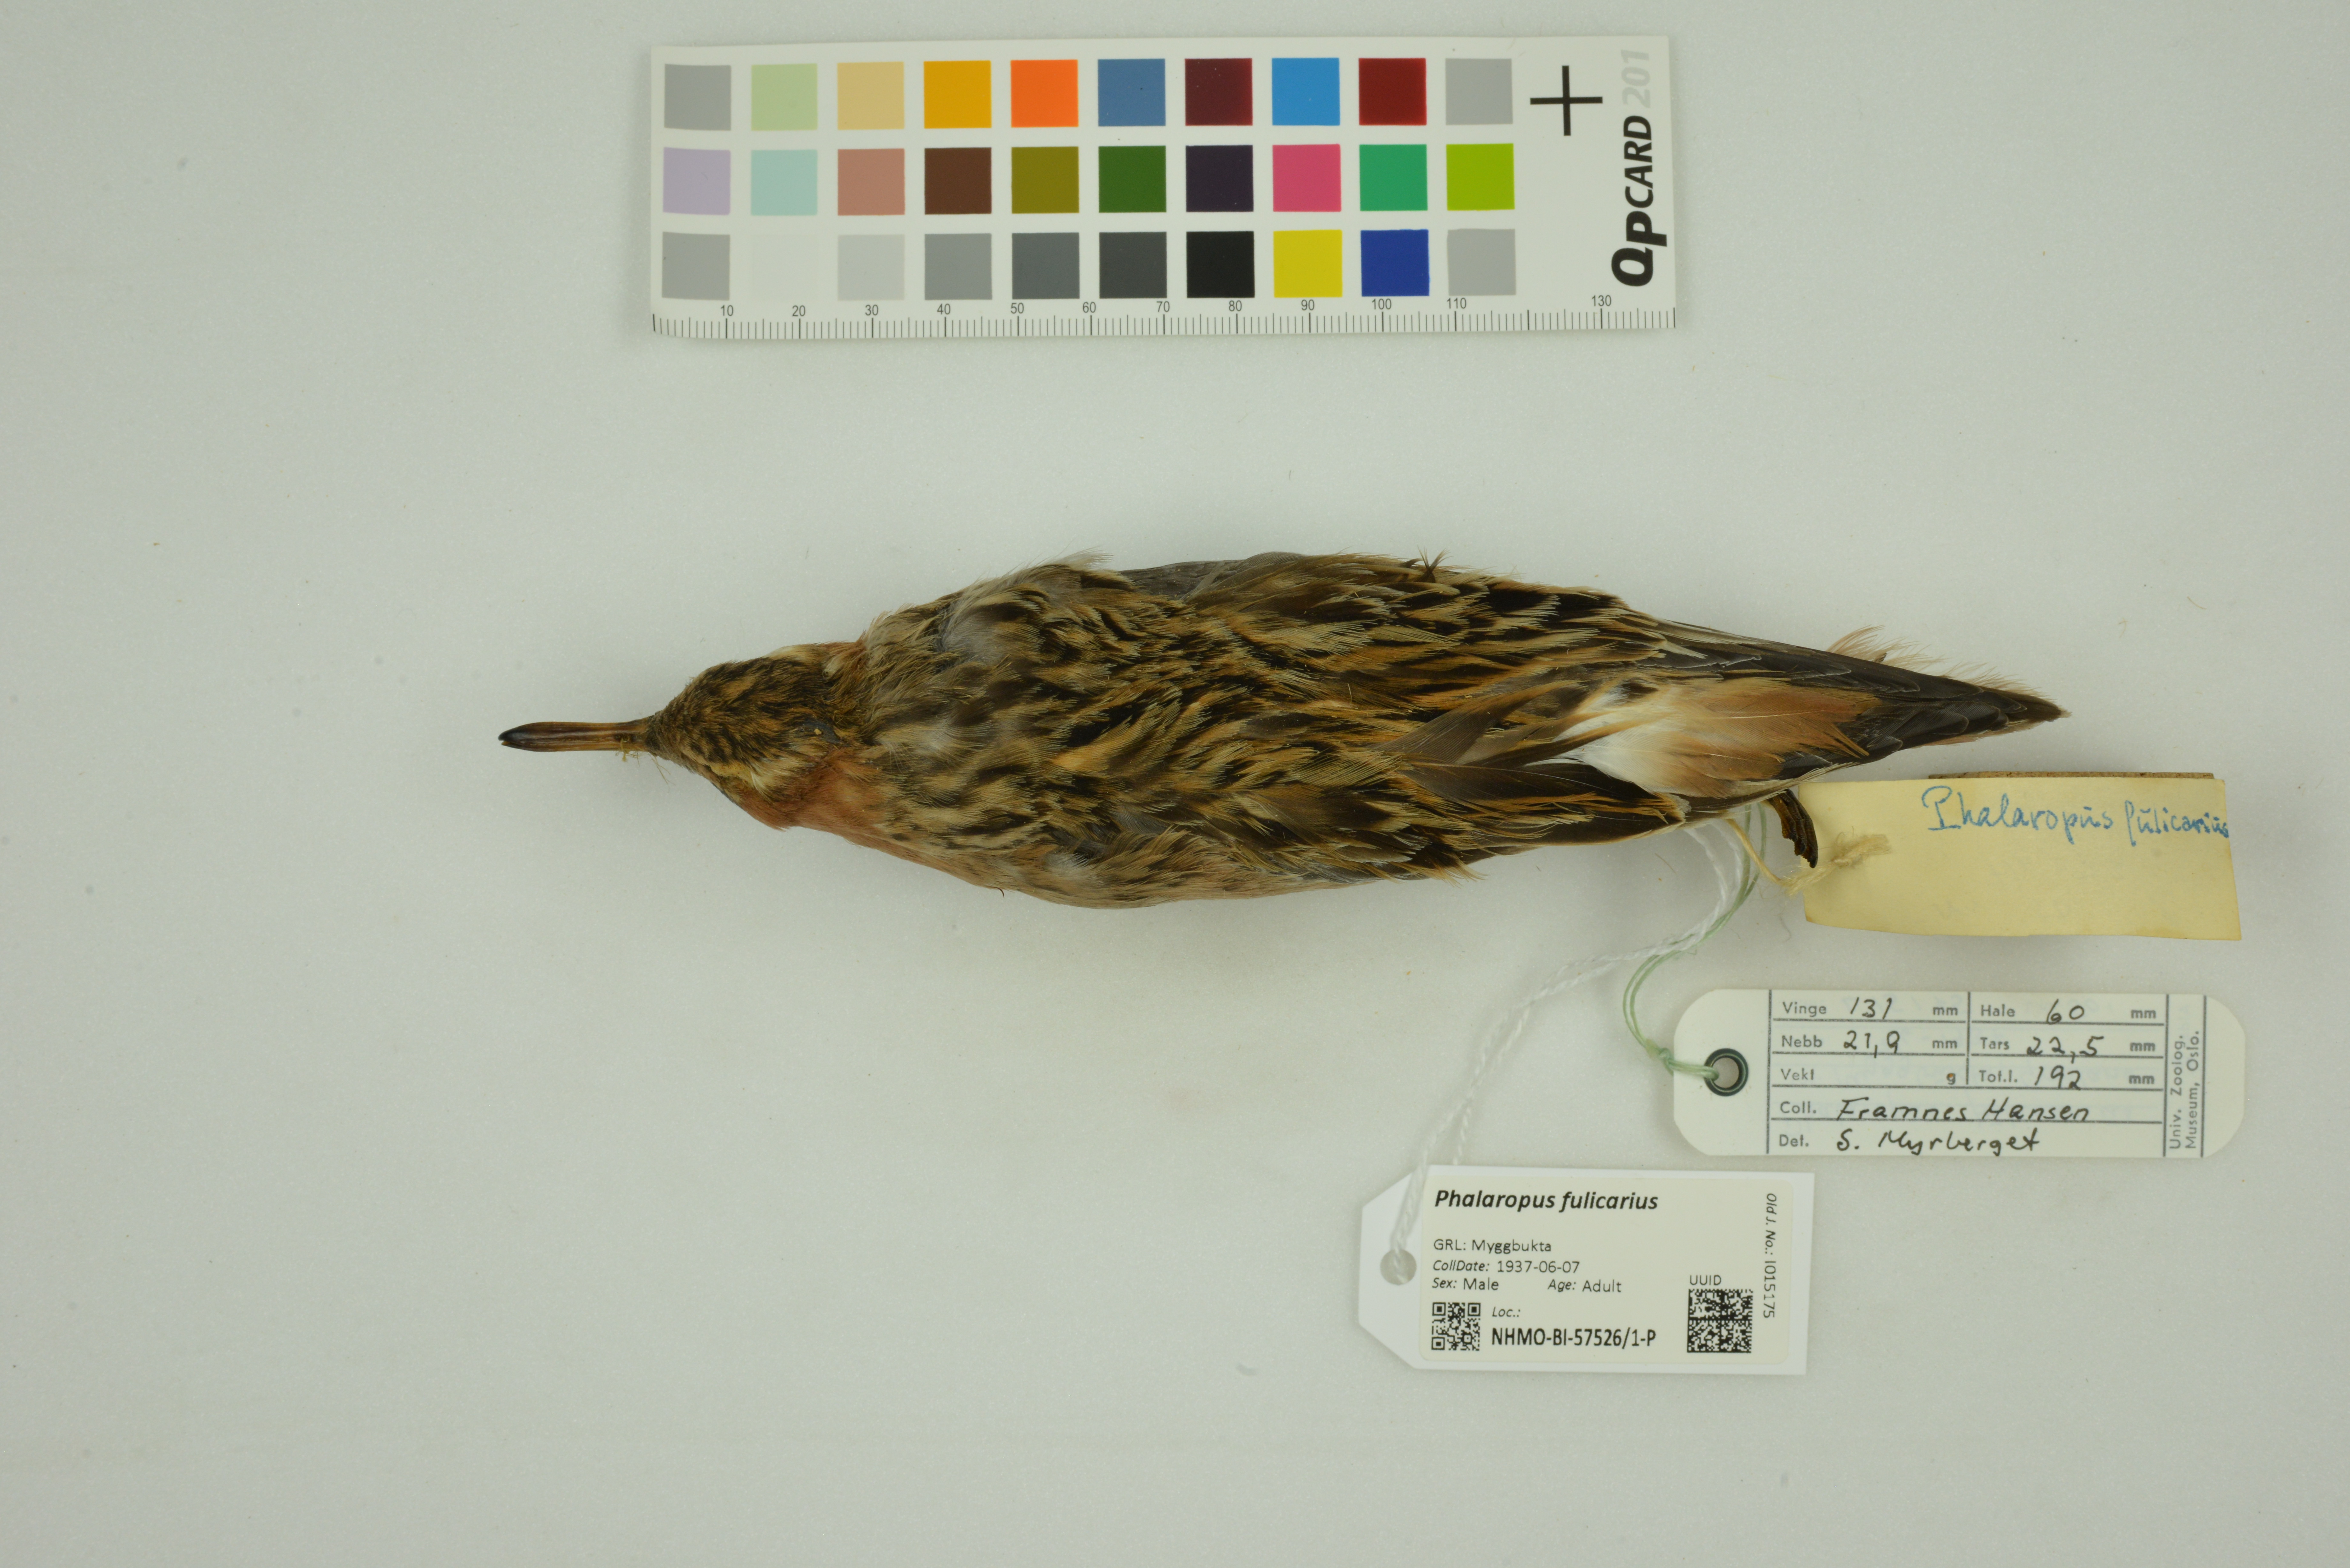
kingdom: Animalia
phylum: Chordata
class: Aves
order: Charadriiformes
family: Scolopacidae
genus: Phalaropus
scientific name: Phalaropus fulicarius
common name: Red phalarope
